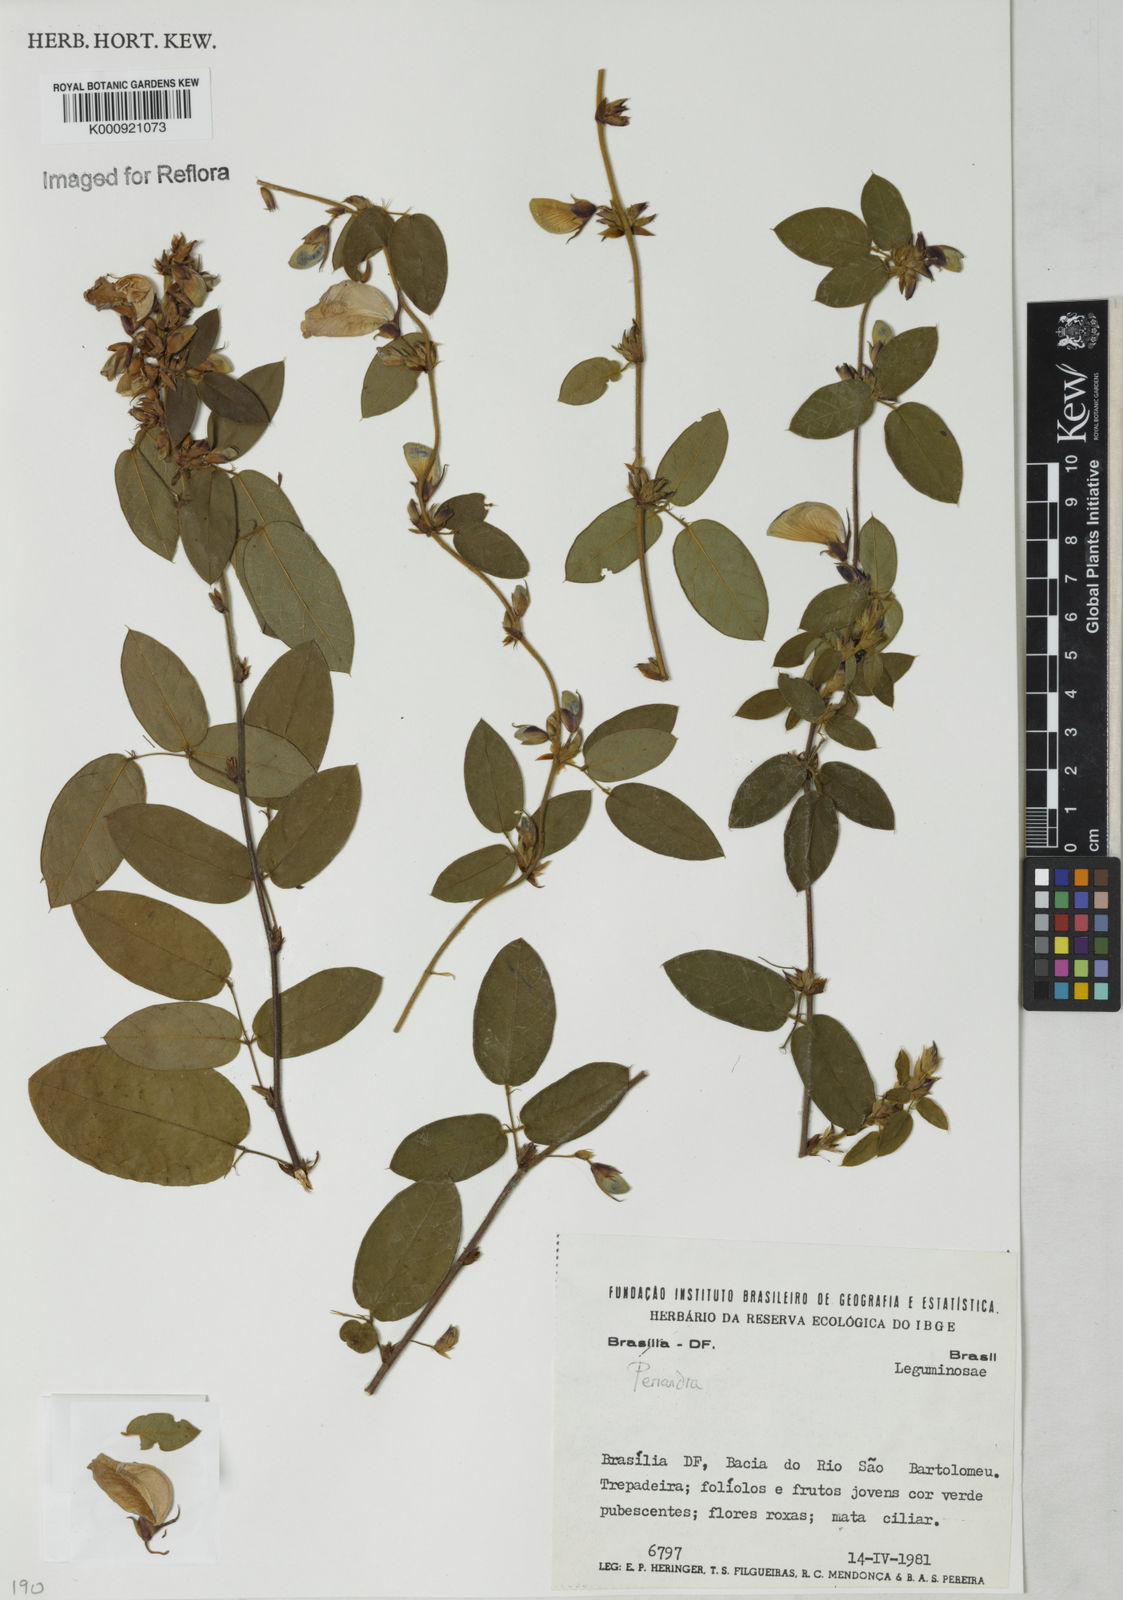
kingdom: Plantae
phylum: Tracheophyta
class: Magnoliopsida
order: Fabales
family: Fabaceae
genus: Periandra
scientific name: Periandra
